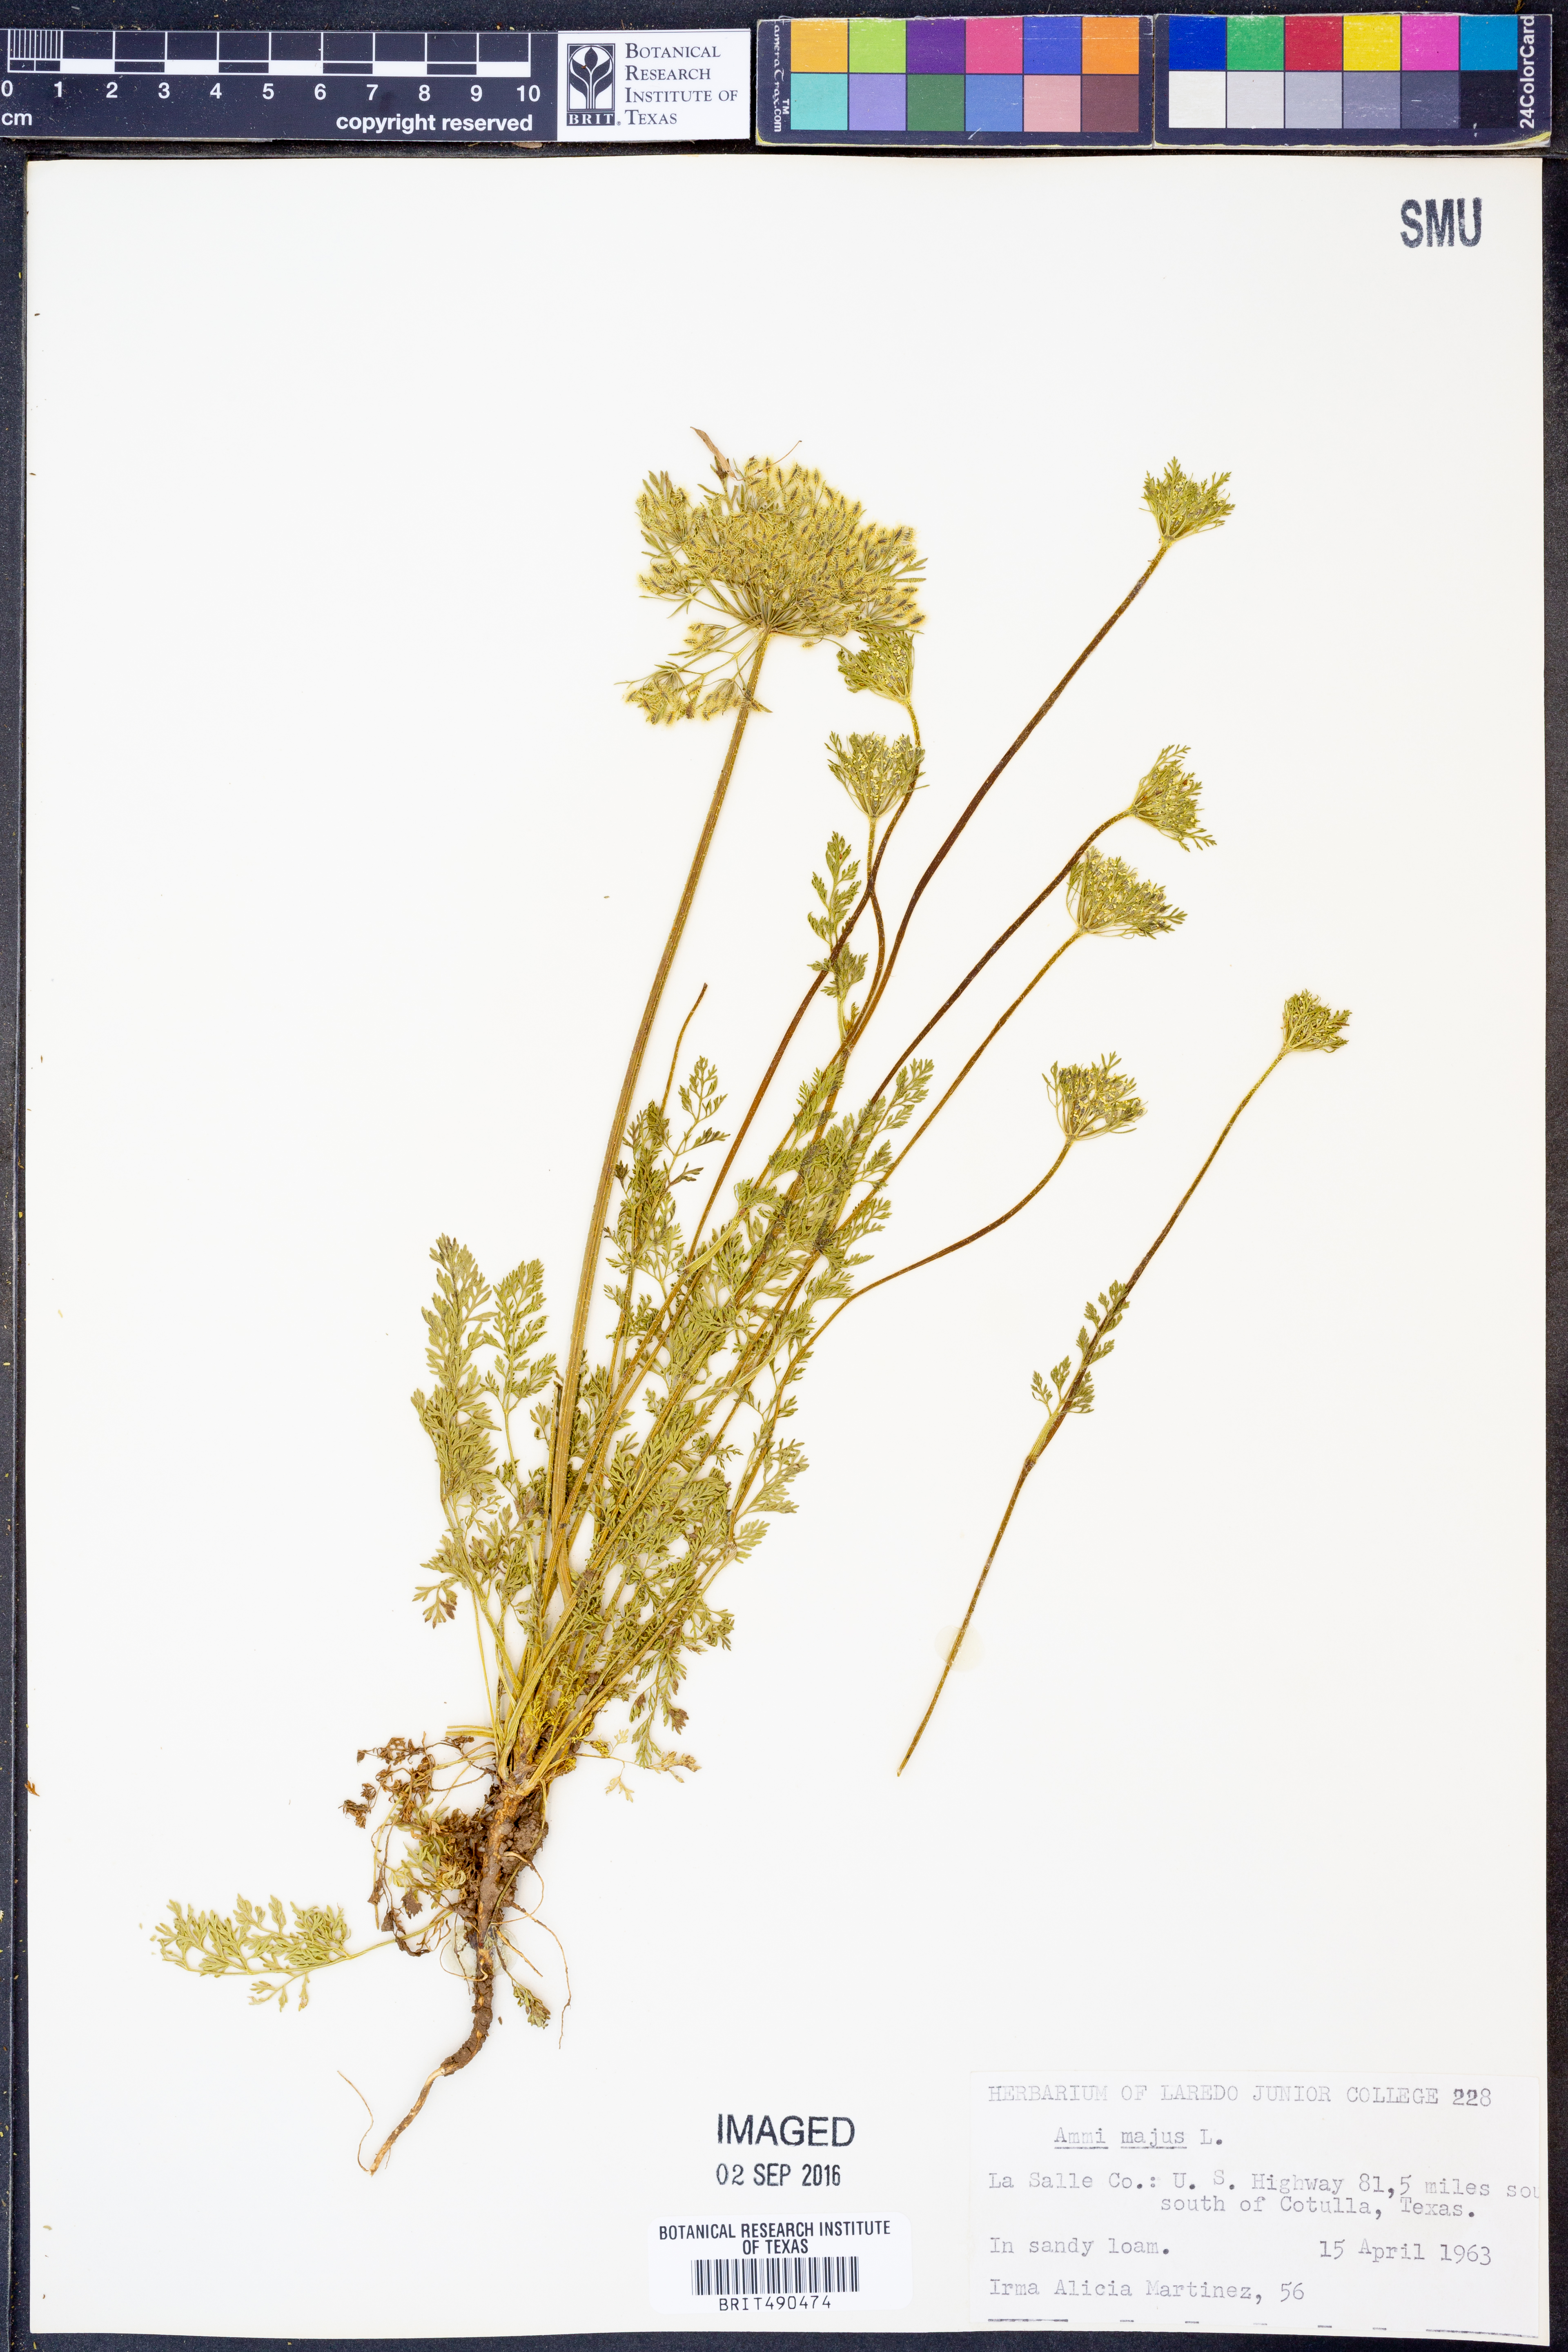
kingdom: Plantae
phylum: Tracheophyta
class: Magnoliopsida
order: Apiales
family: Apiaceae
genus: Ammi
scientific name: Ammi majus
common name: Bullwort
